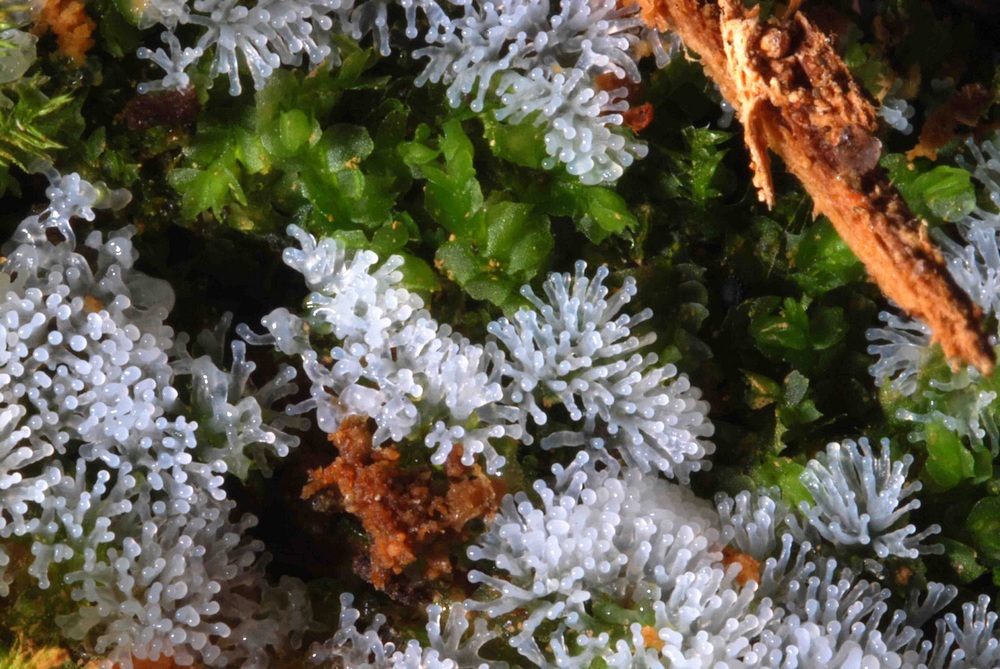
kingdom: Protozoa
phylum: Mycetozoa
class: Protosteliomycetes
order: Ceratiomyxales
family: Ceratiomyxaceae
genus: Ceratiomyxa
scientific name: Ceratiomyxa fruticulosa
